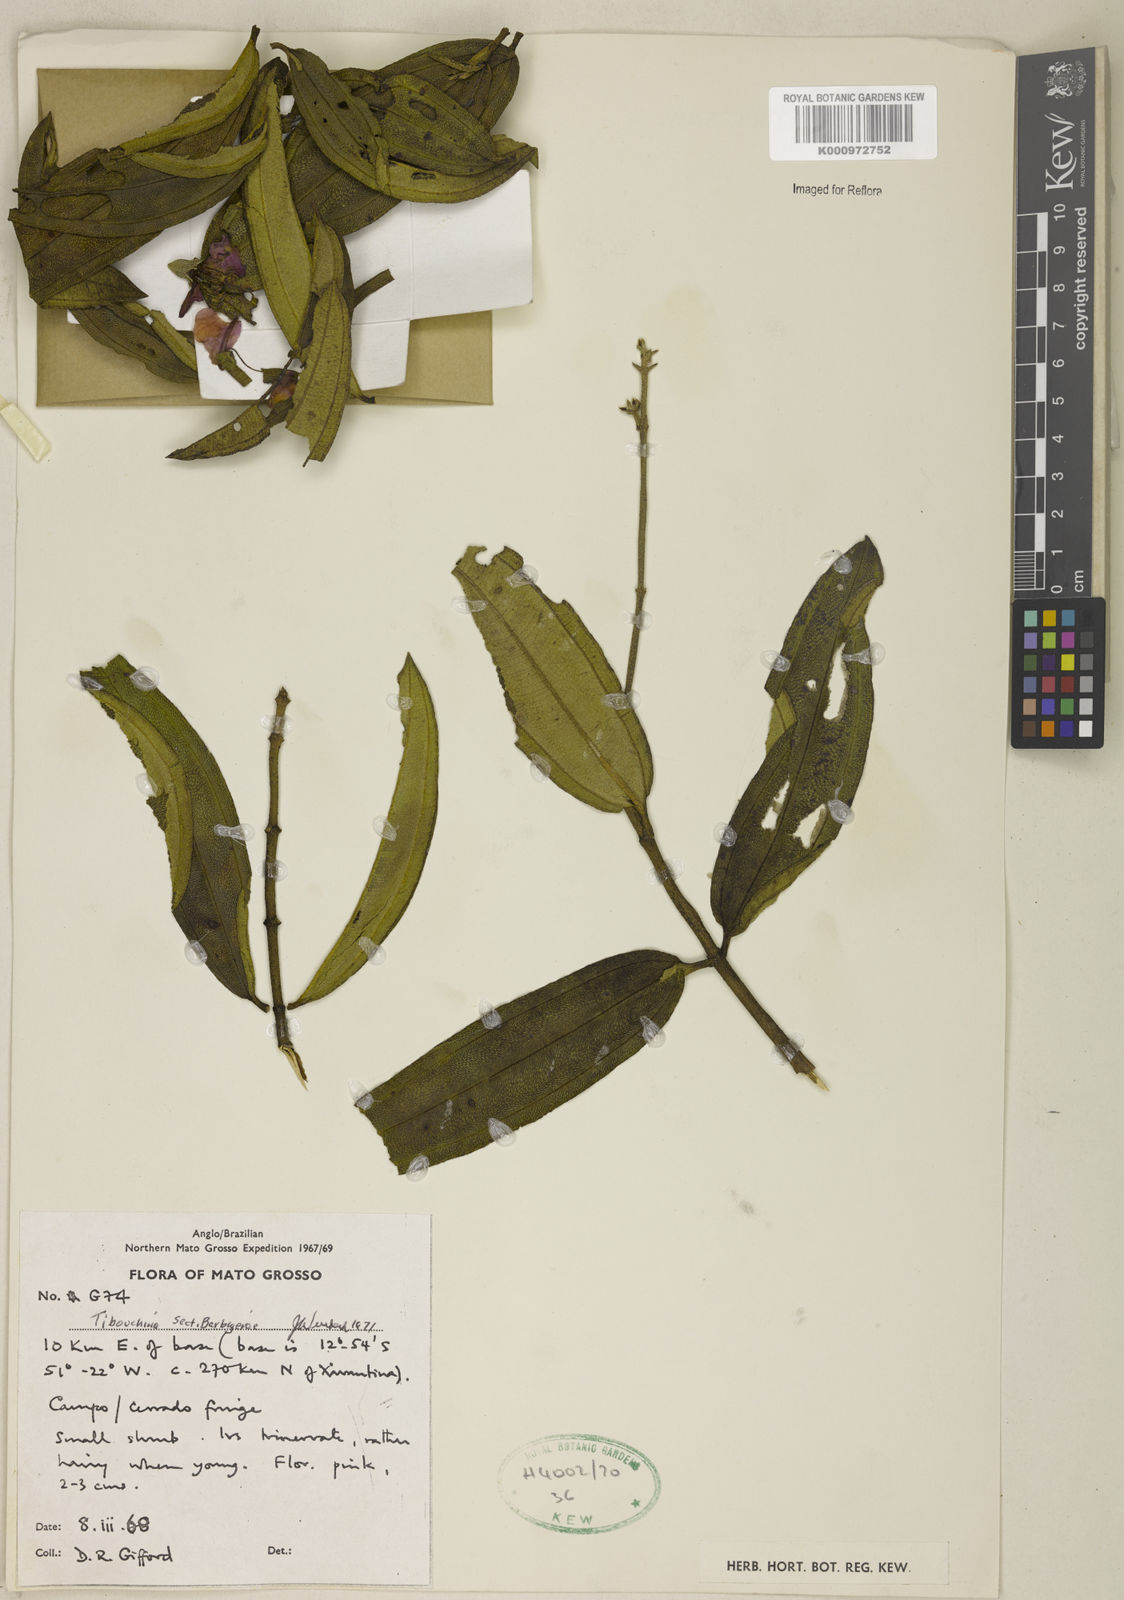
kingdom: Plantae
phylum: Tracheophyta
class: Magnoliopsida
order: Myrtales
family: Melastomataceae
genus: Pleroma
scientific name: Pleroma aegopogon
